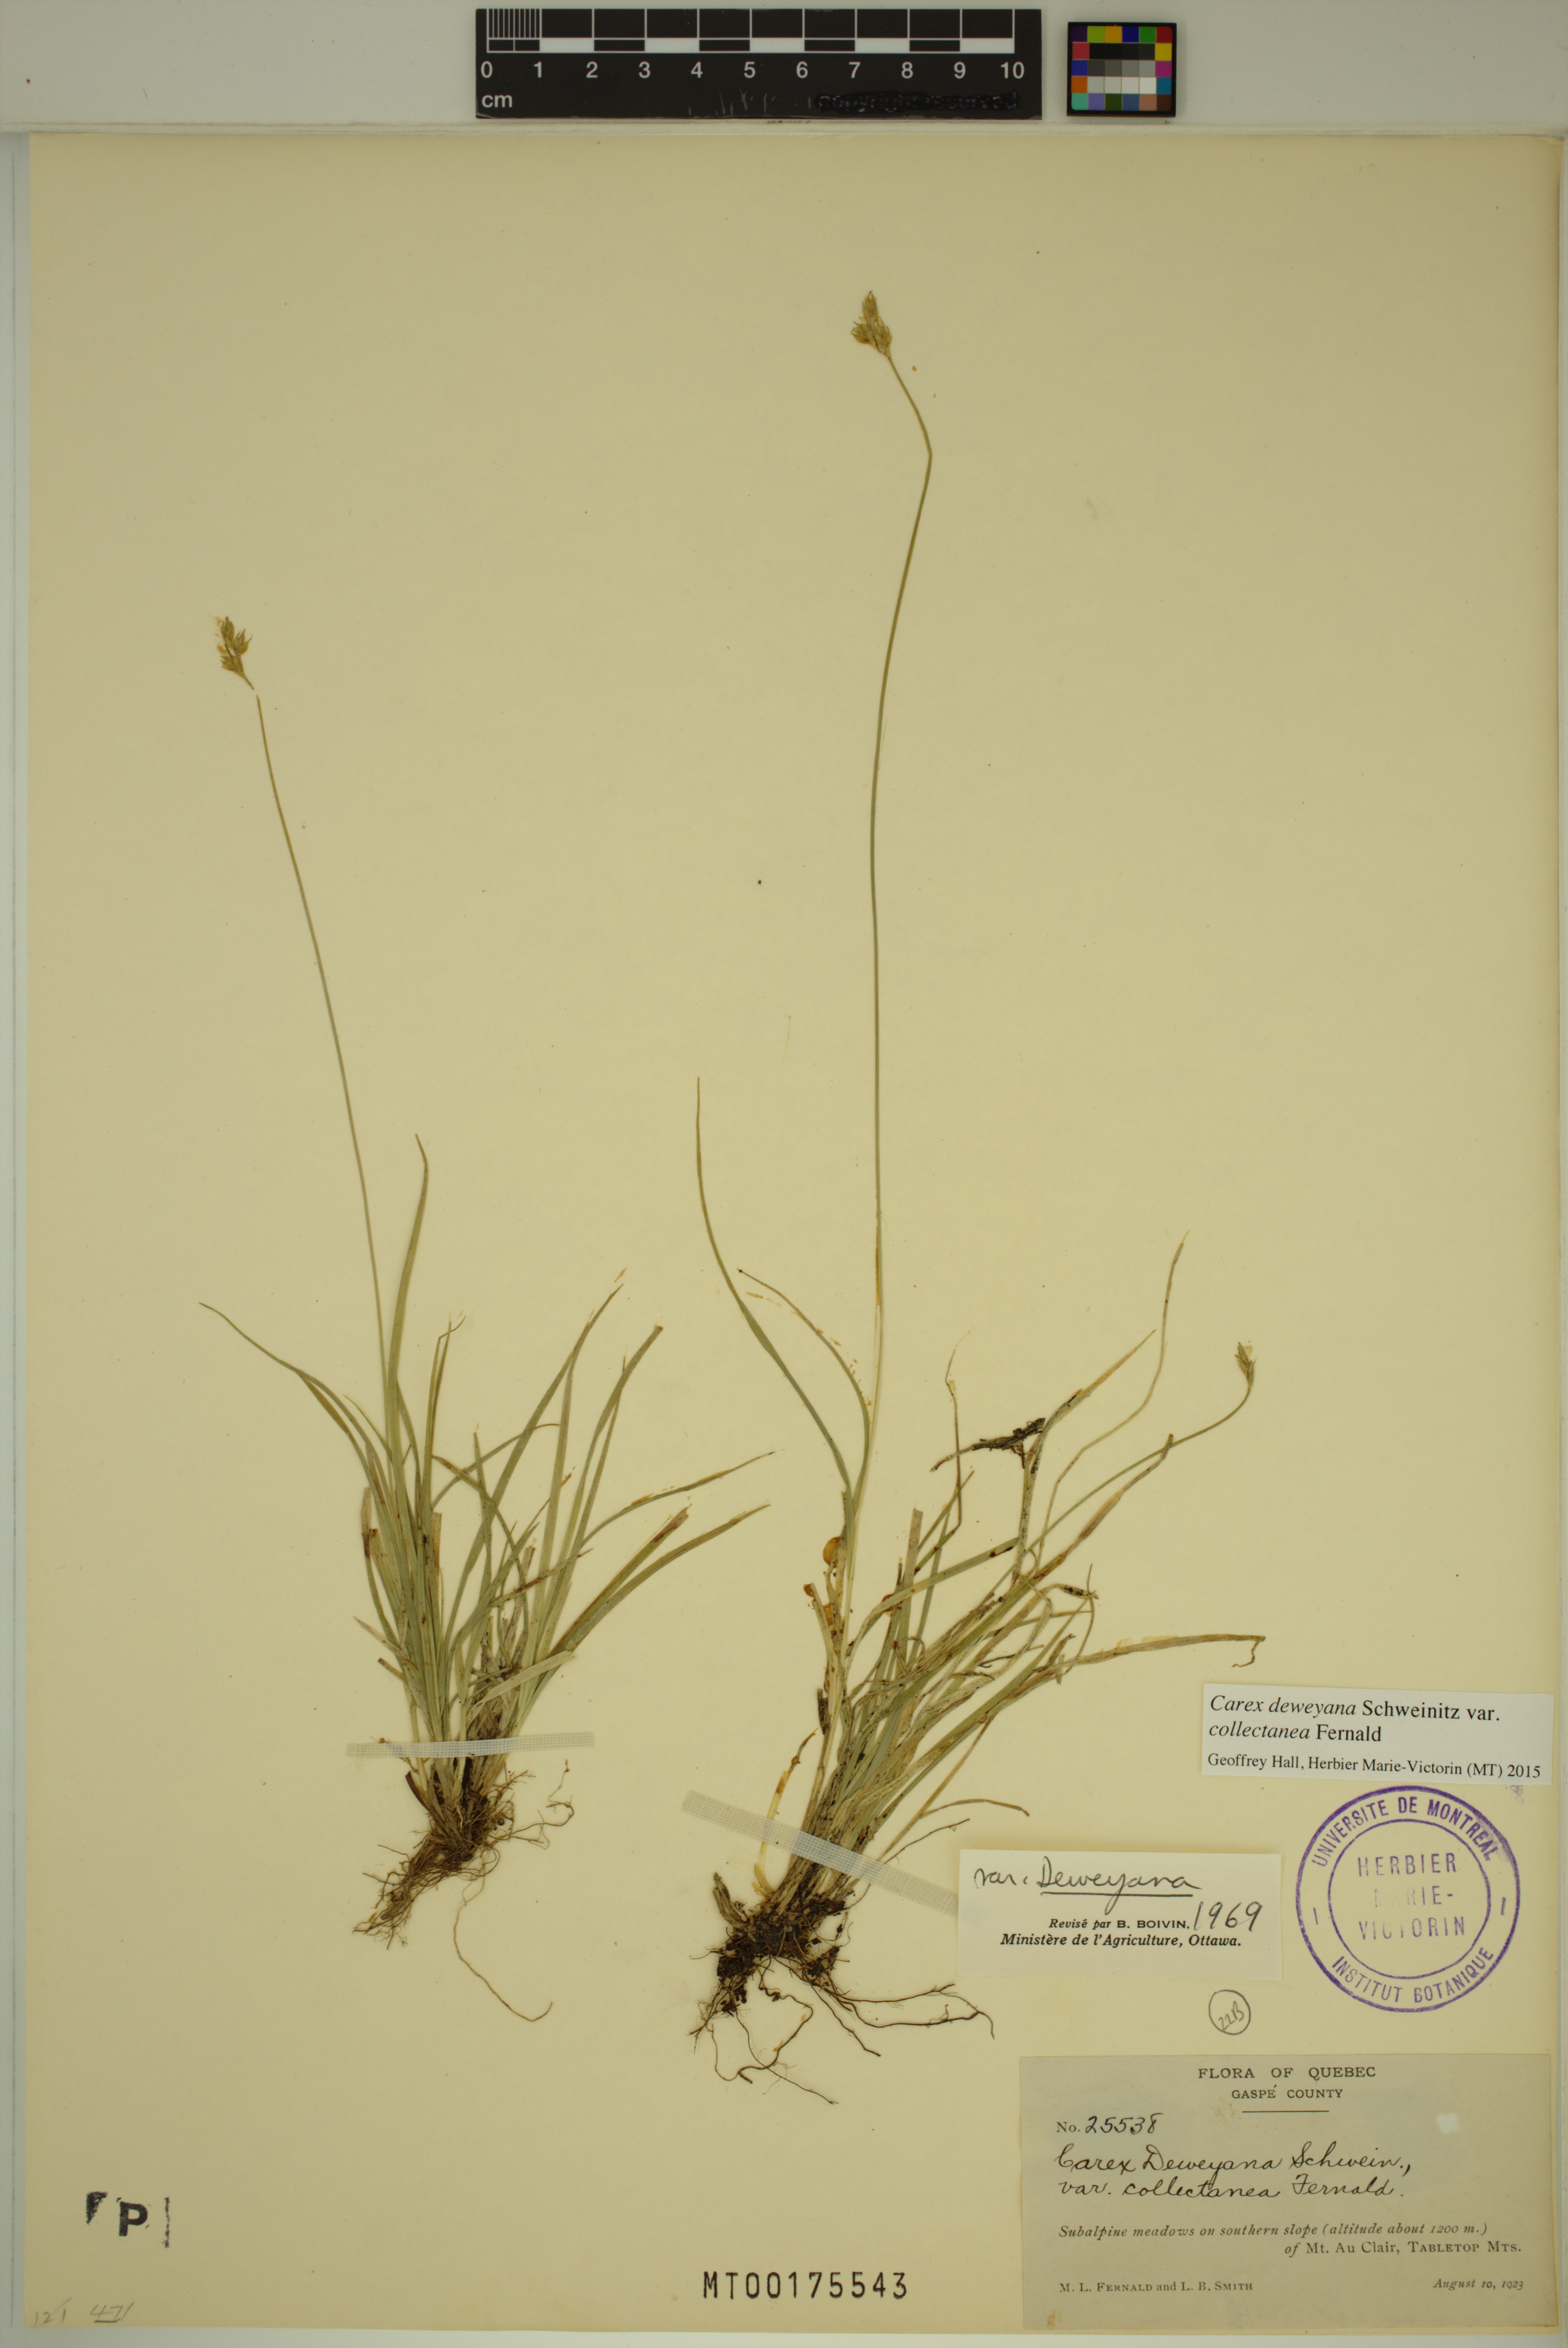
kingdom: Plantae
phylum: Tracheophyta
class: Liliopsida
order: Poales
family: Cyperaceae
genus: Carex
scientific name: Carex deweyana
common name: Dewey's sedge
